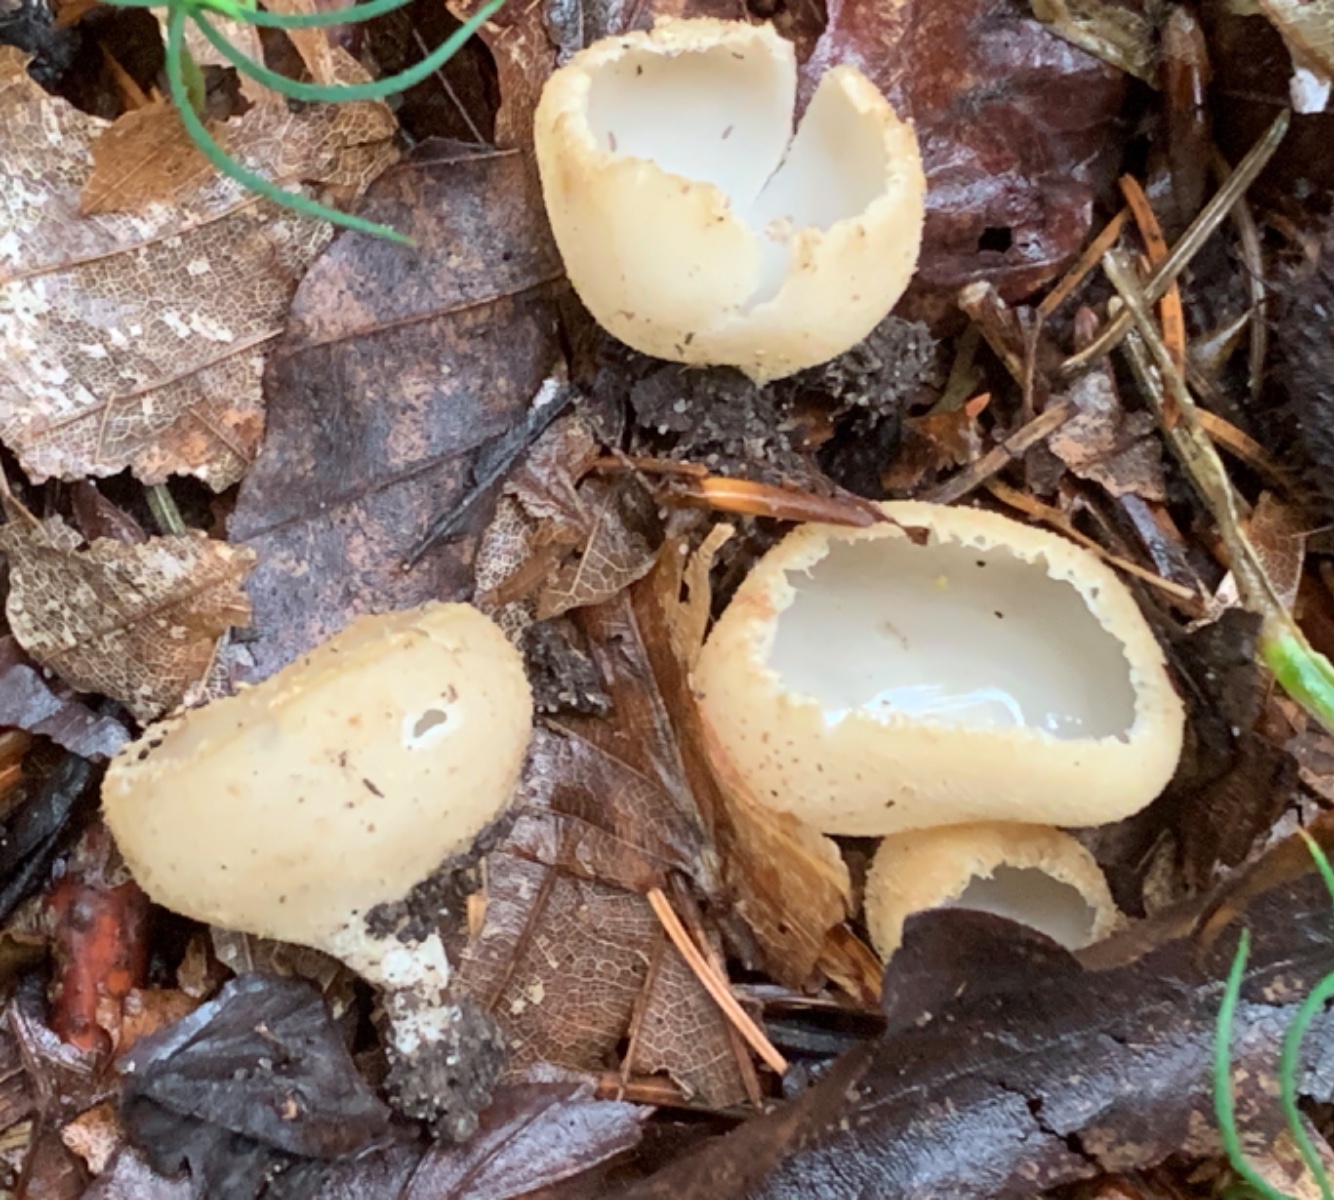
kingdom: Fungi
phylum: Ascomycota
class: Pezizomycetes
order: Pezizales
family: Pyronemataceae
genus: Tarzetta
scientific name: Tarzetta cupularis
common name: gulbrun pokalbæger
